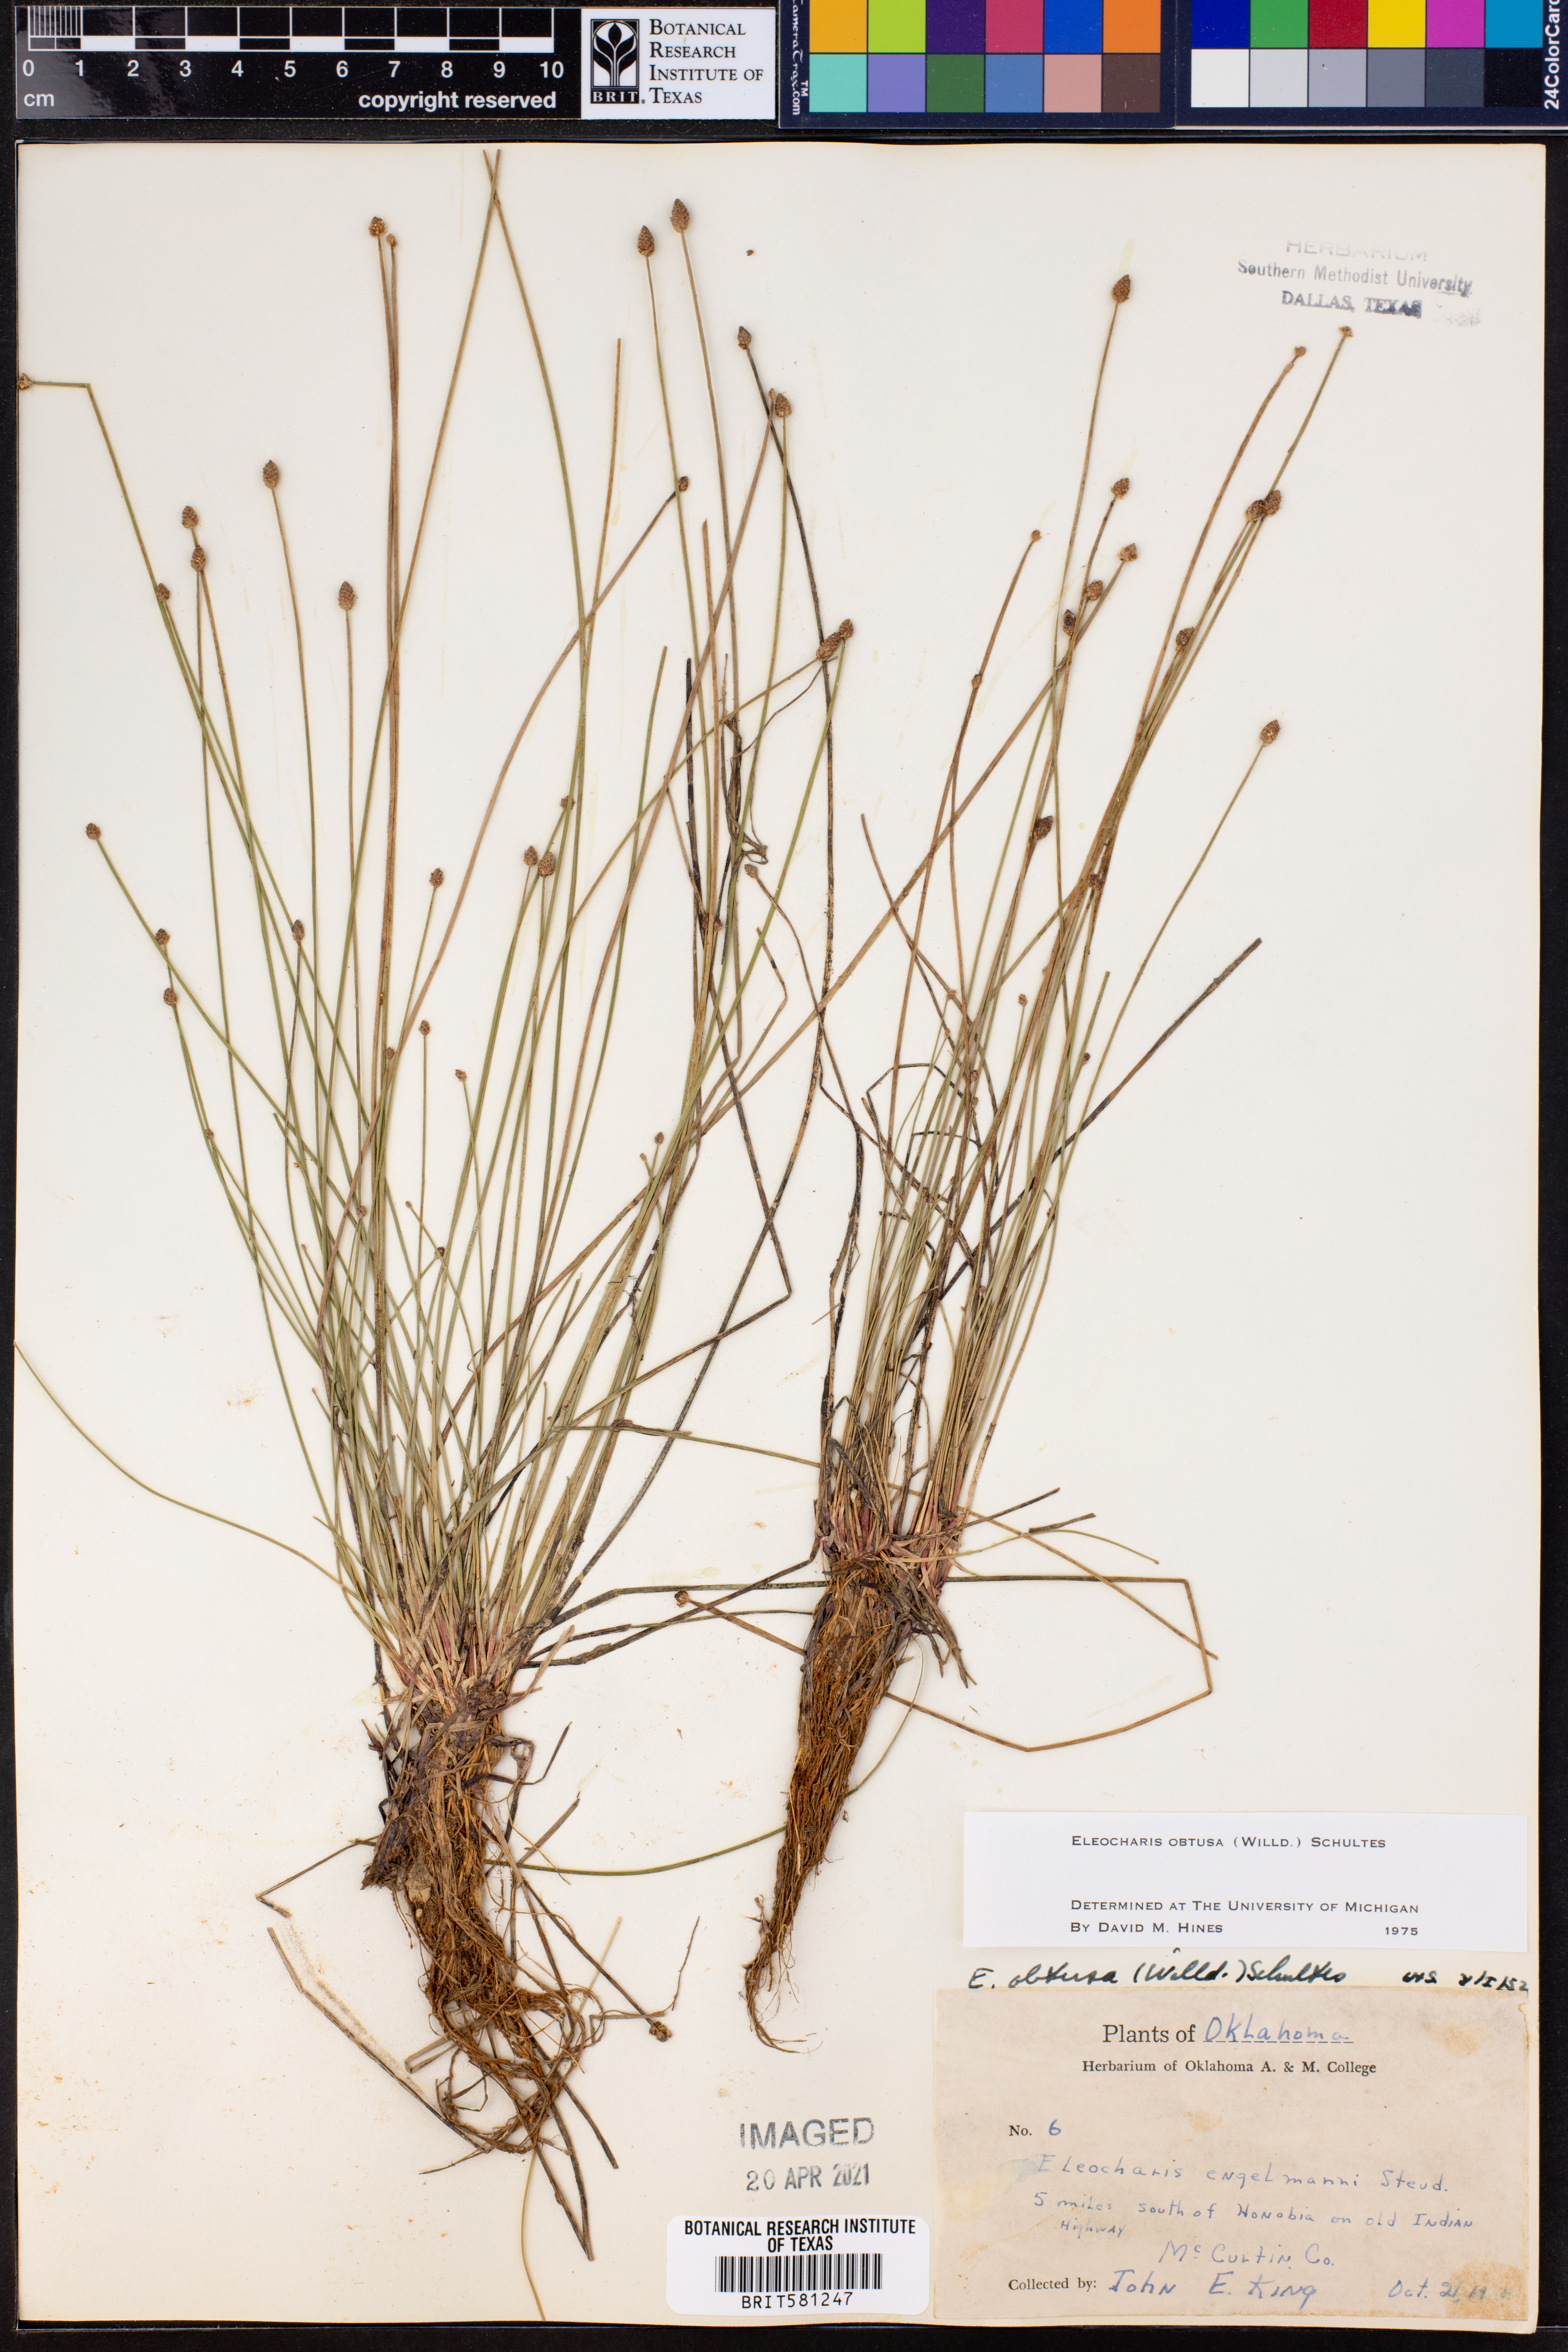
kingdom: Plantae
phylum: Tracheophyta
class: Liliopsida
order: Poales
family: Cyperaceae
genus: Eleocharis
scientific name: Eleocharis obtusa
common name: Blunt spikerush
